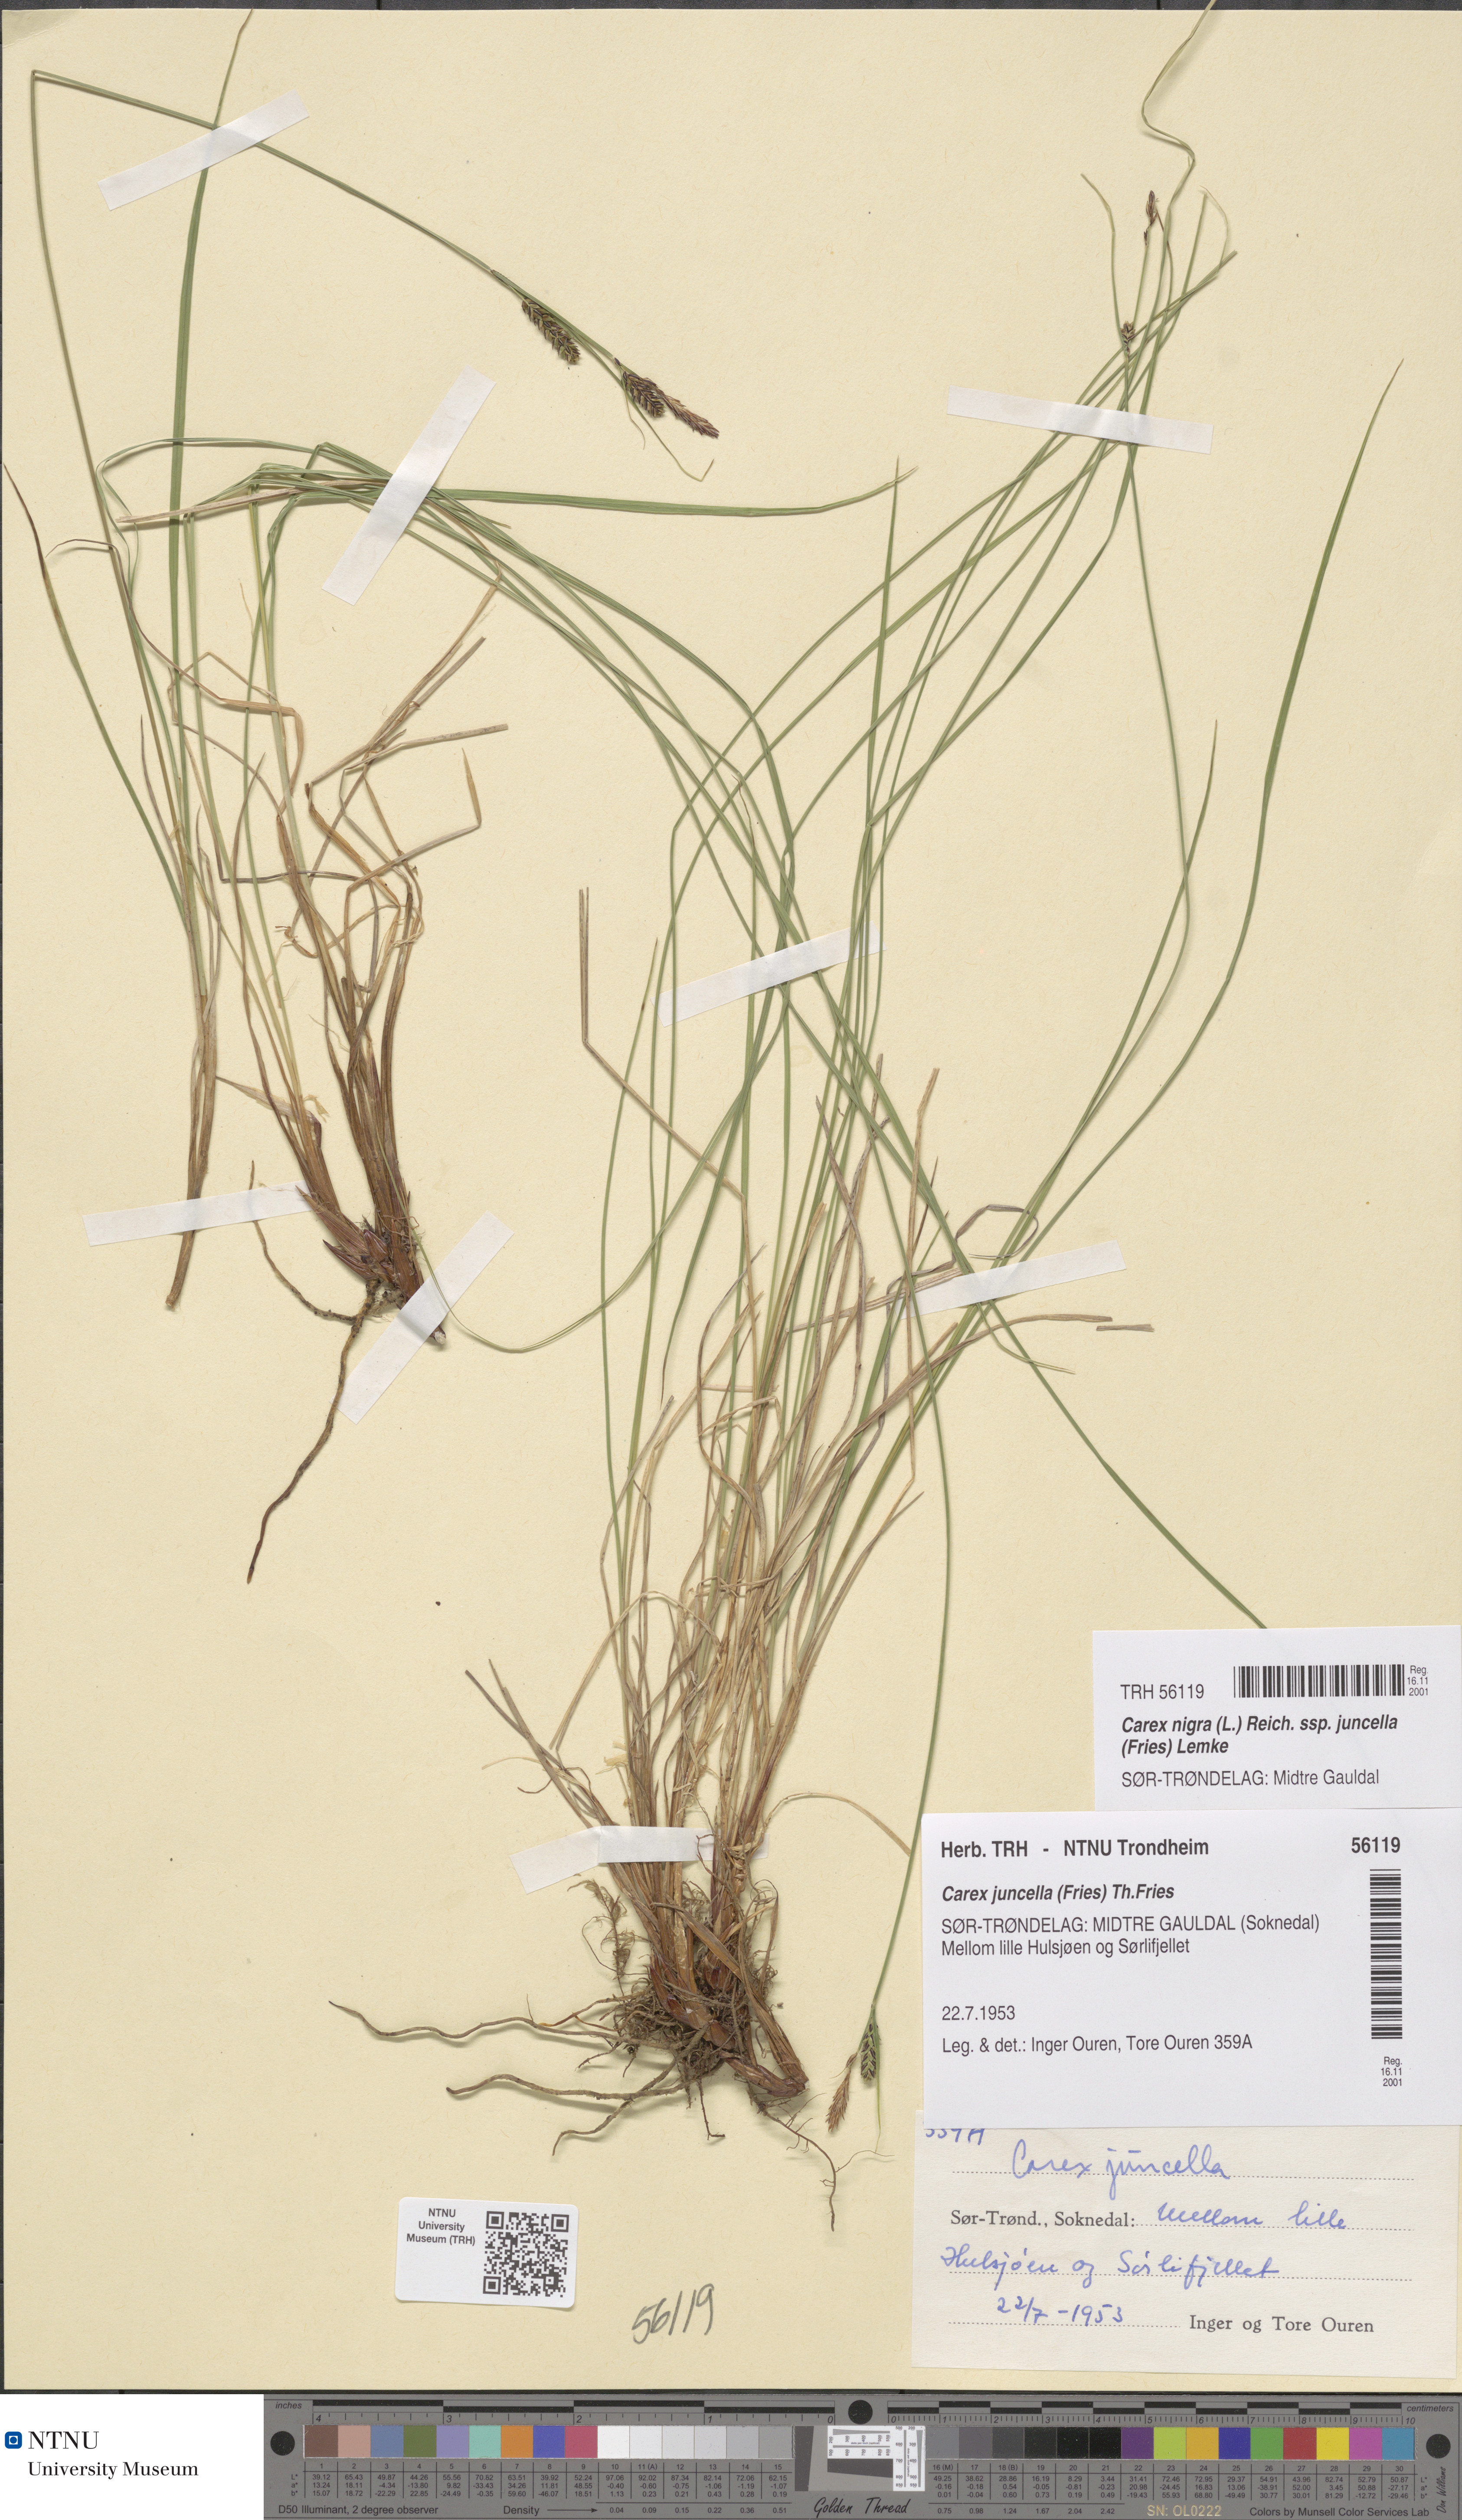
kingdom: Plantae
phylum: Tracheophyta
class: Liliopsida
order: Poales
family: Cyperaceae
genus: Carex
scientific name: Carex nigra
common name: Common sedge
